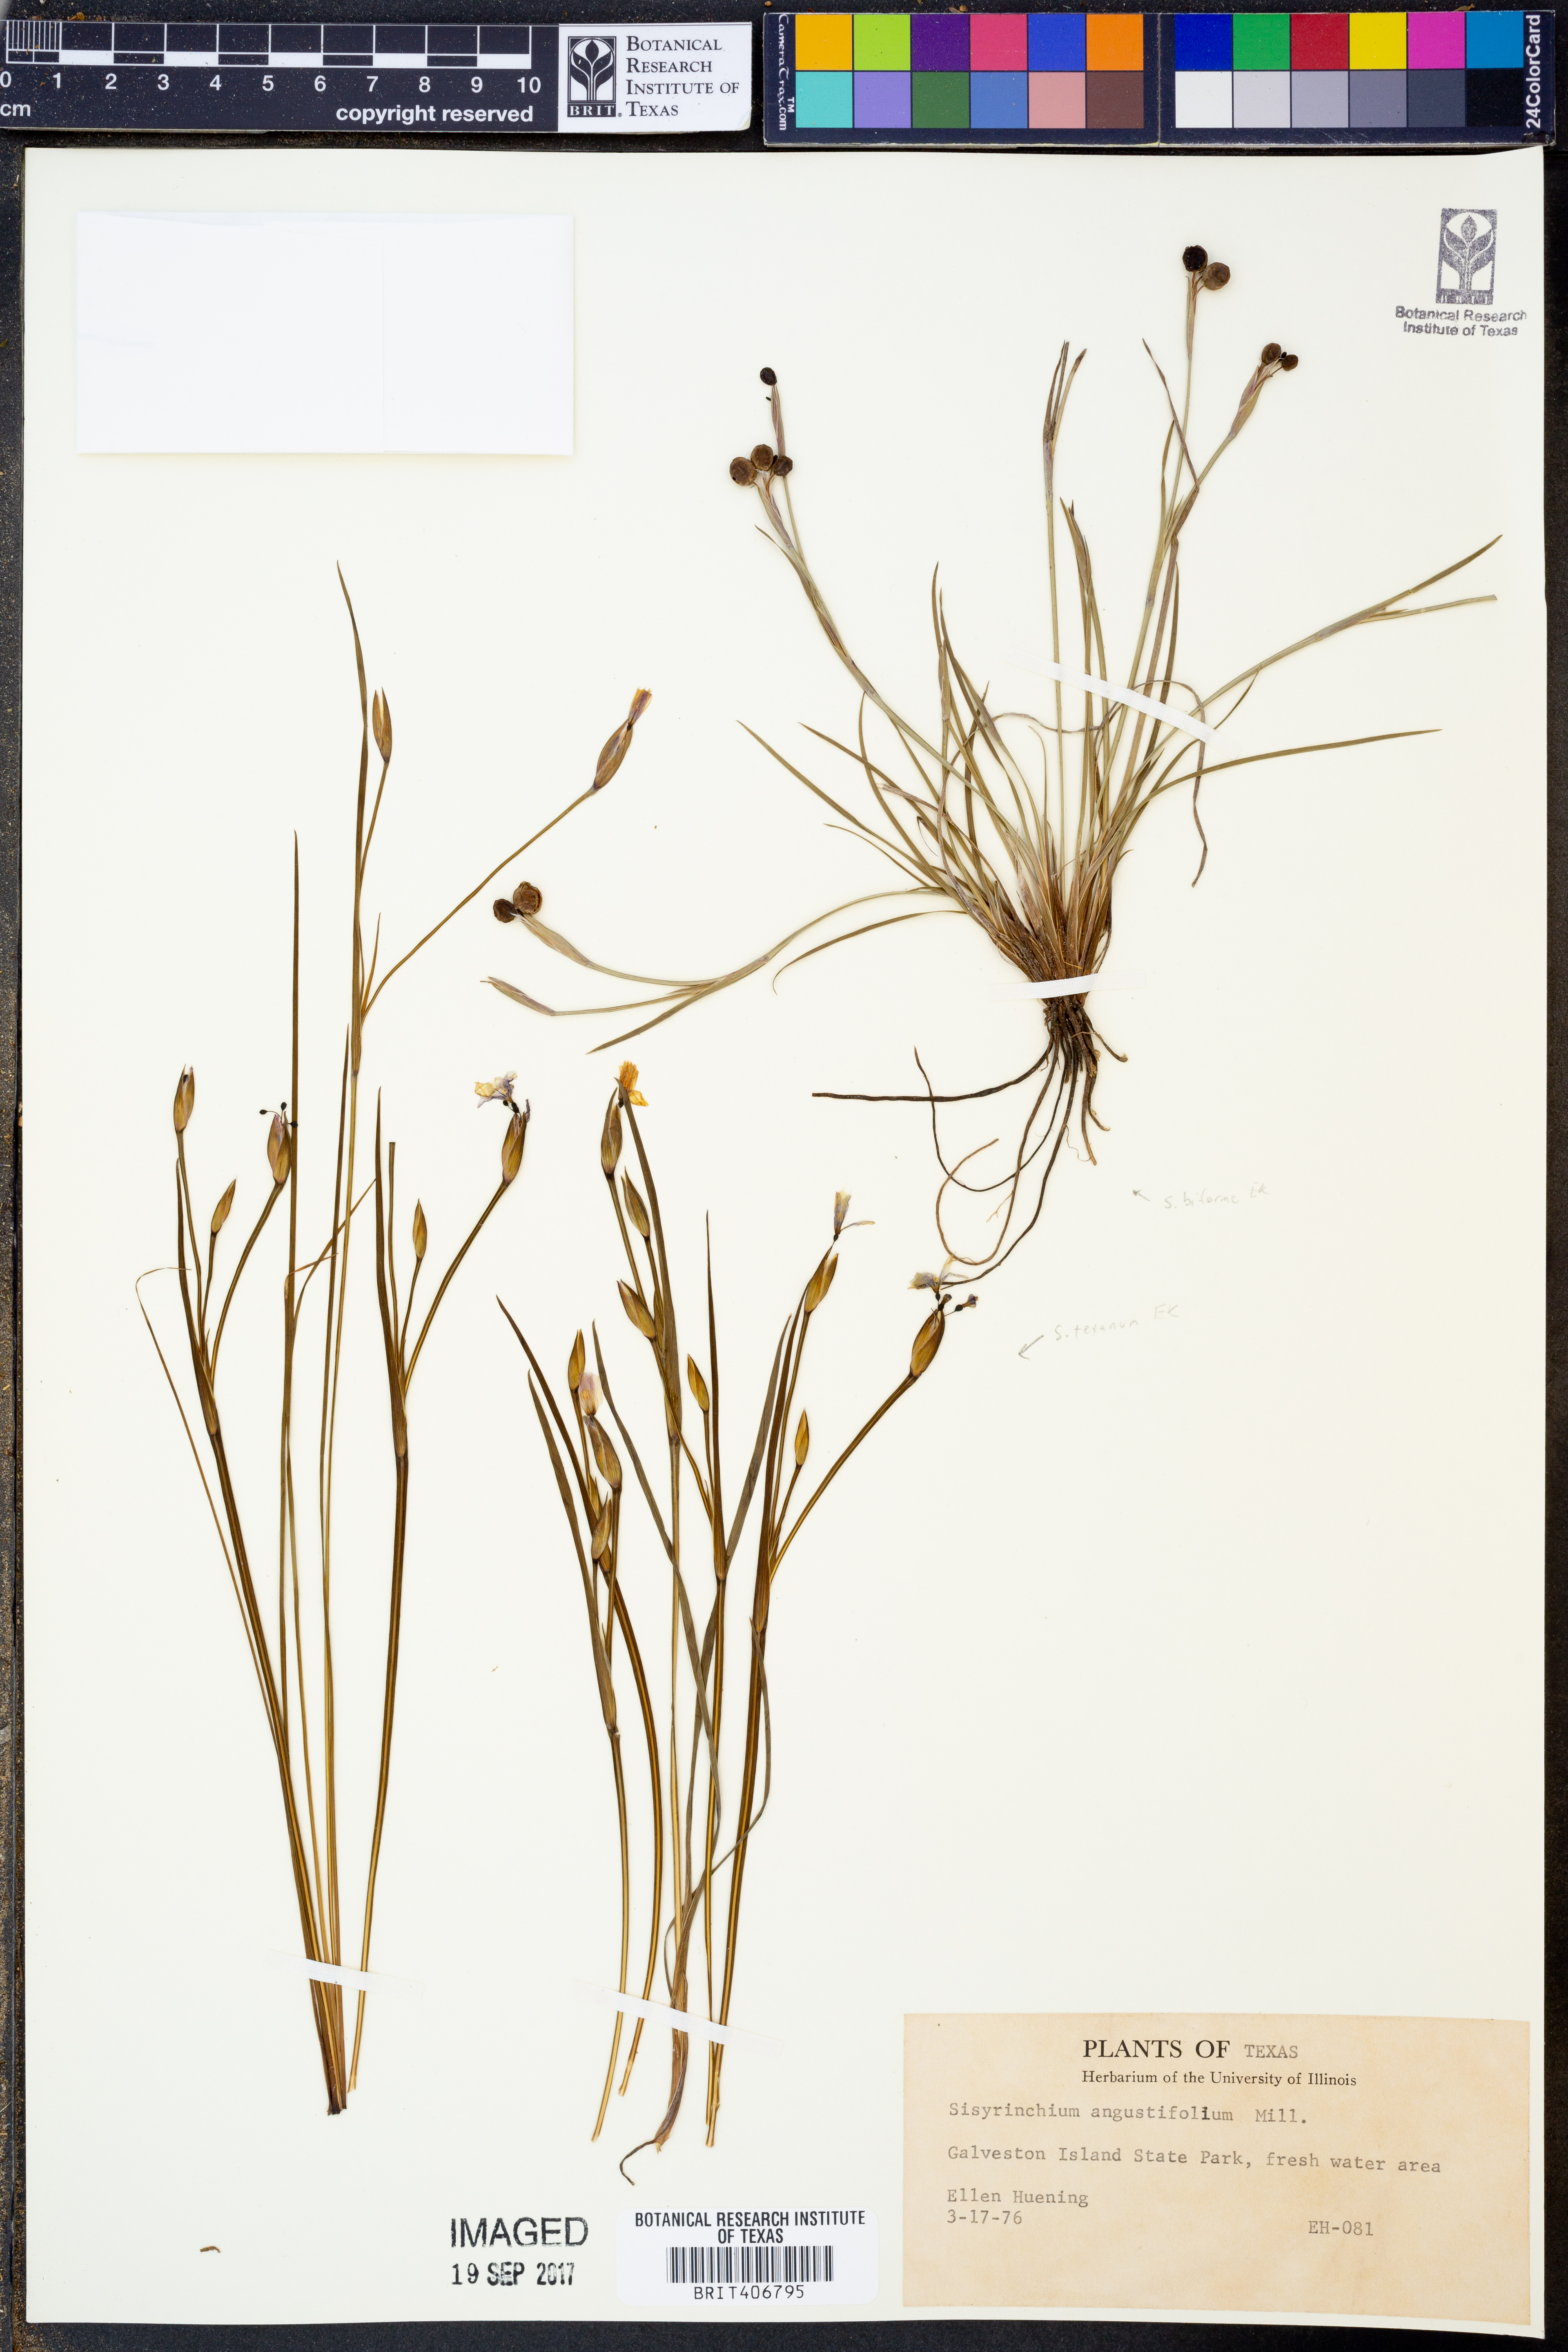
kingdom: Plantae
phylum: Tracheophyta
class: Liliopsida
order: Asparagales
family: Iridaceae
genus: Sisyrinchium
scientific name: Sisyrinchium angustifolium
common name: Narrow-leaf blue-eyed-grass
